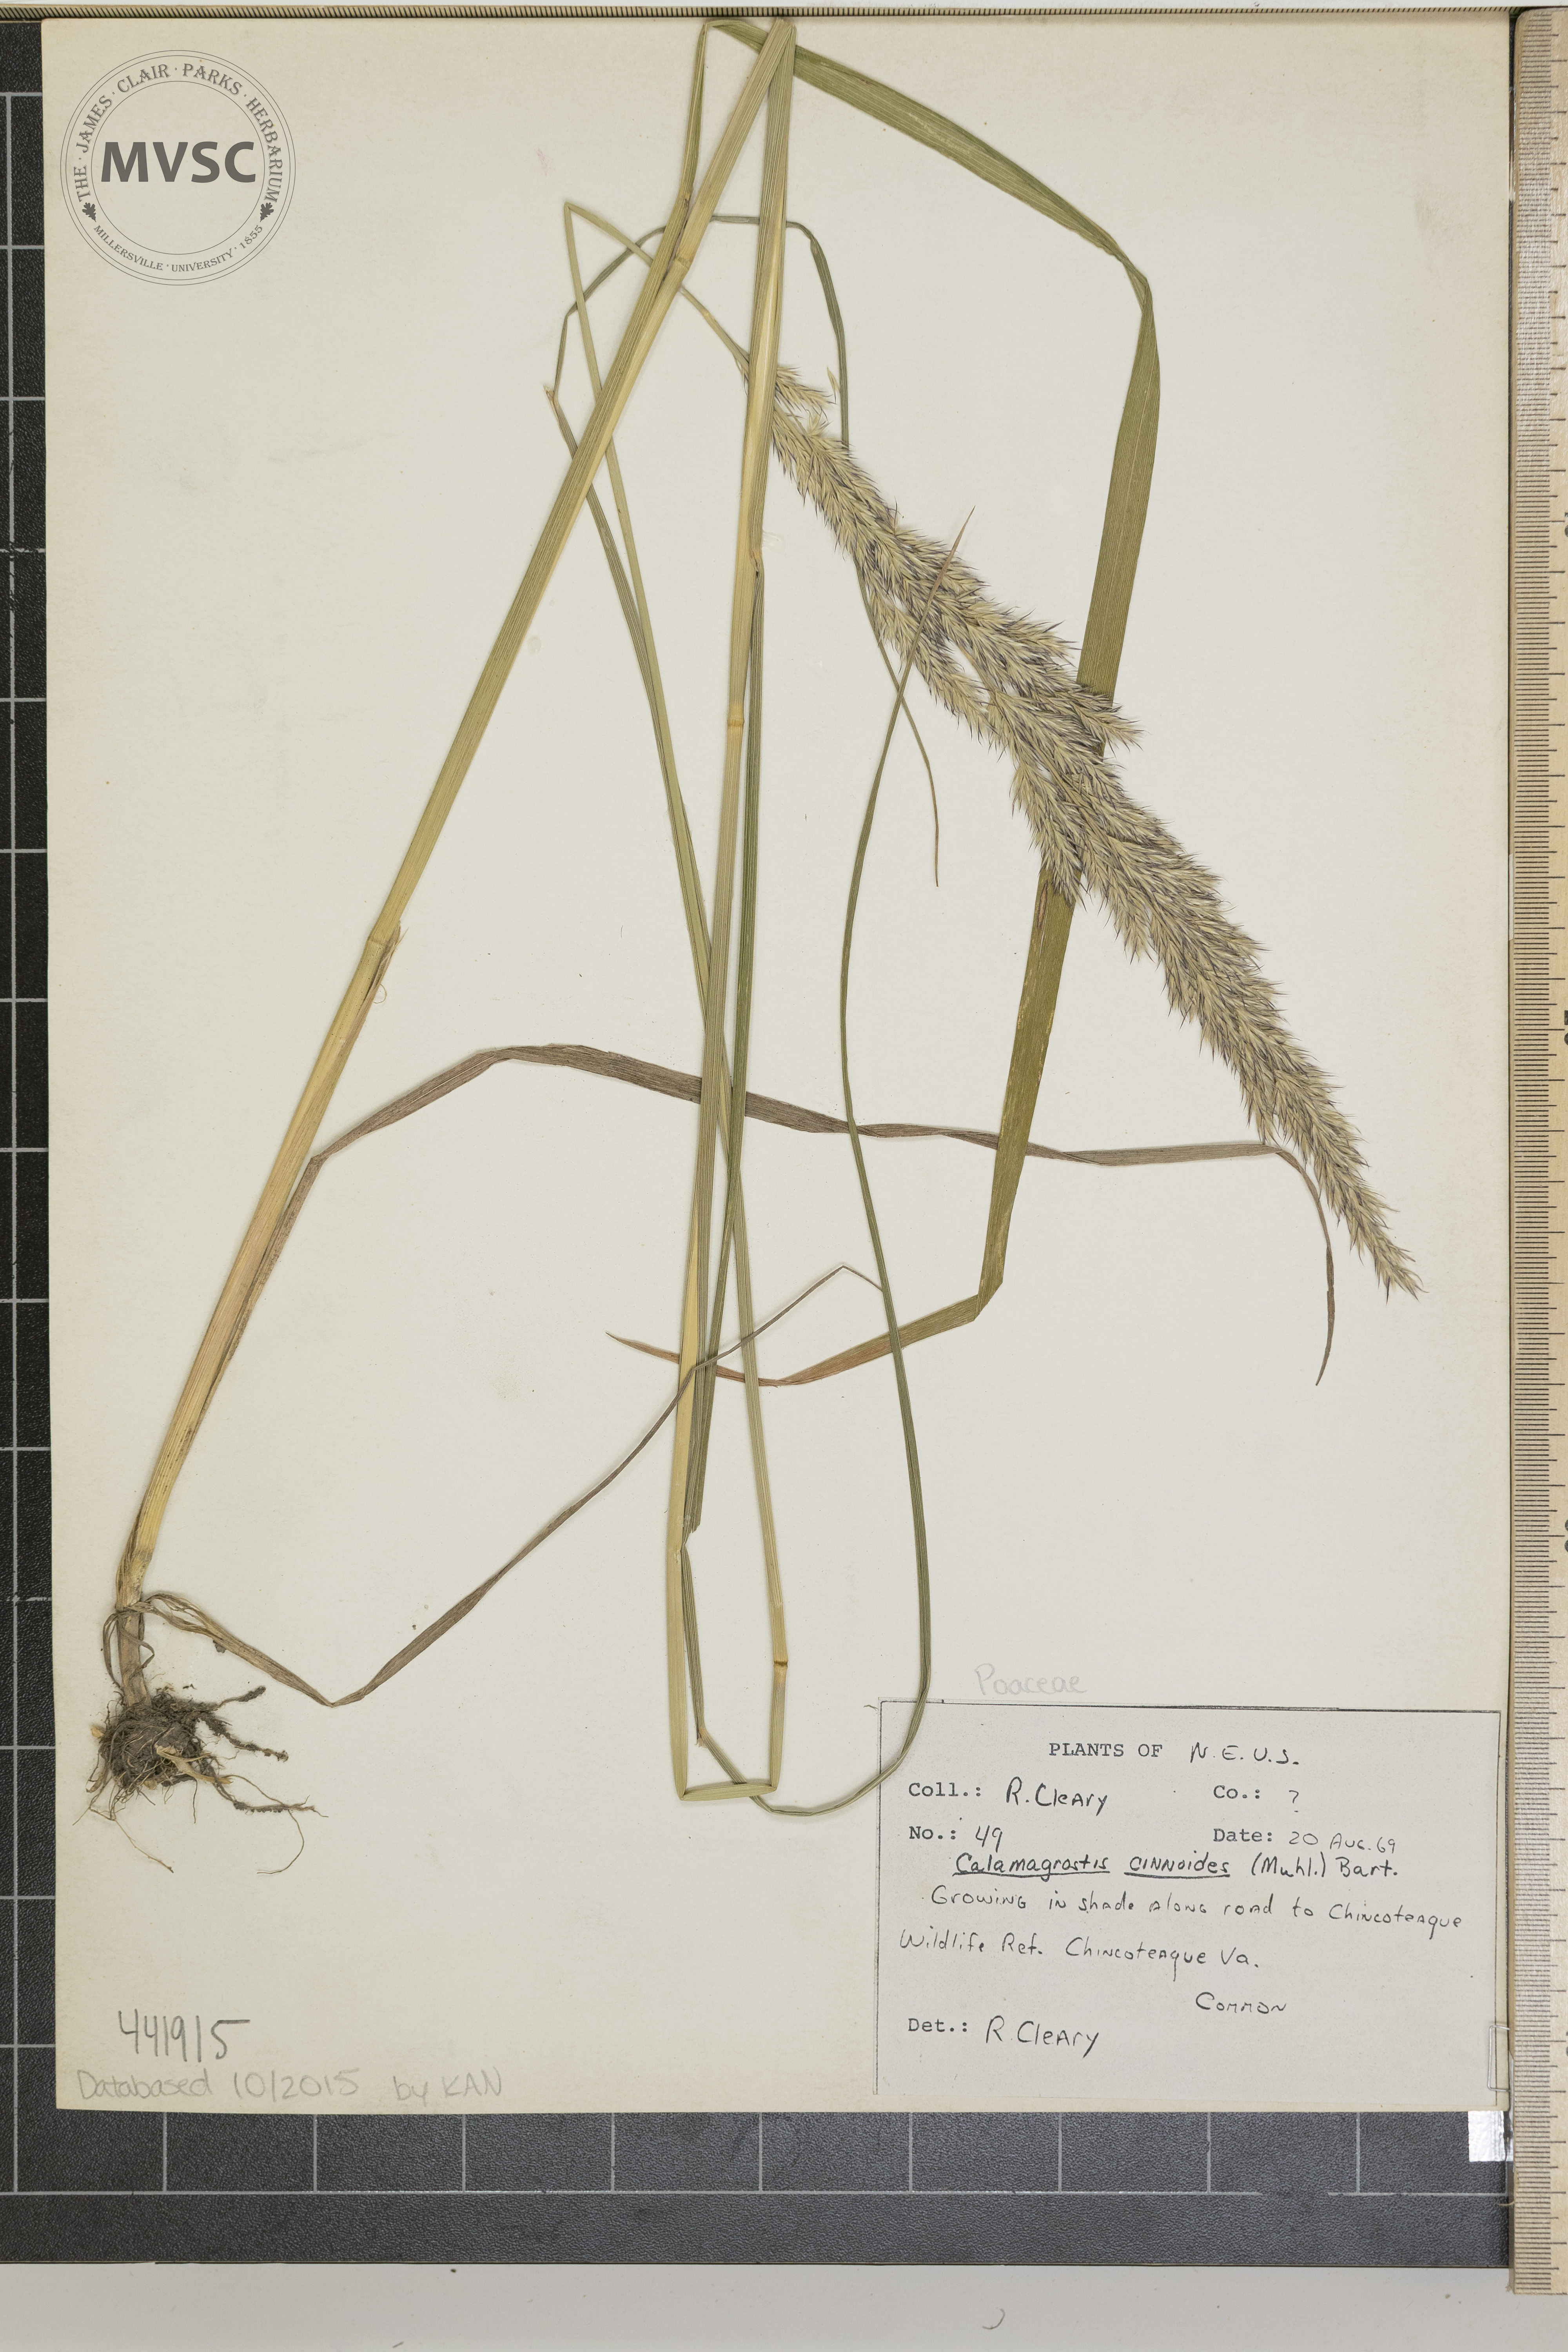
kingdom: Plantae
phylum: Tracheophyta
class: Liliopsida
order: Poales
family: Poaceae
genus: Calamagrostis
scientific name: Calamagrostis canadensis
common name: Canada bluejoint
